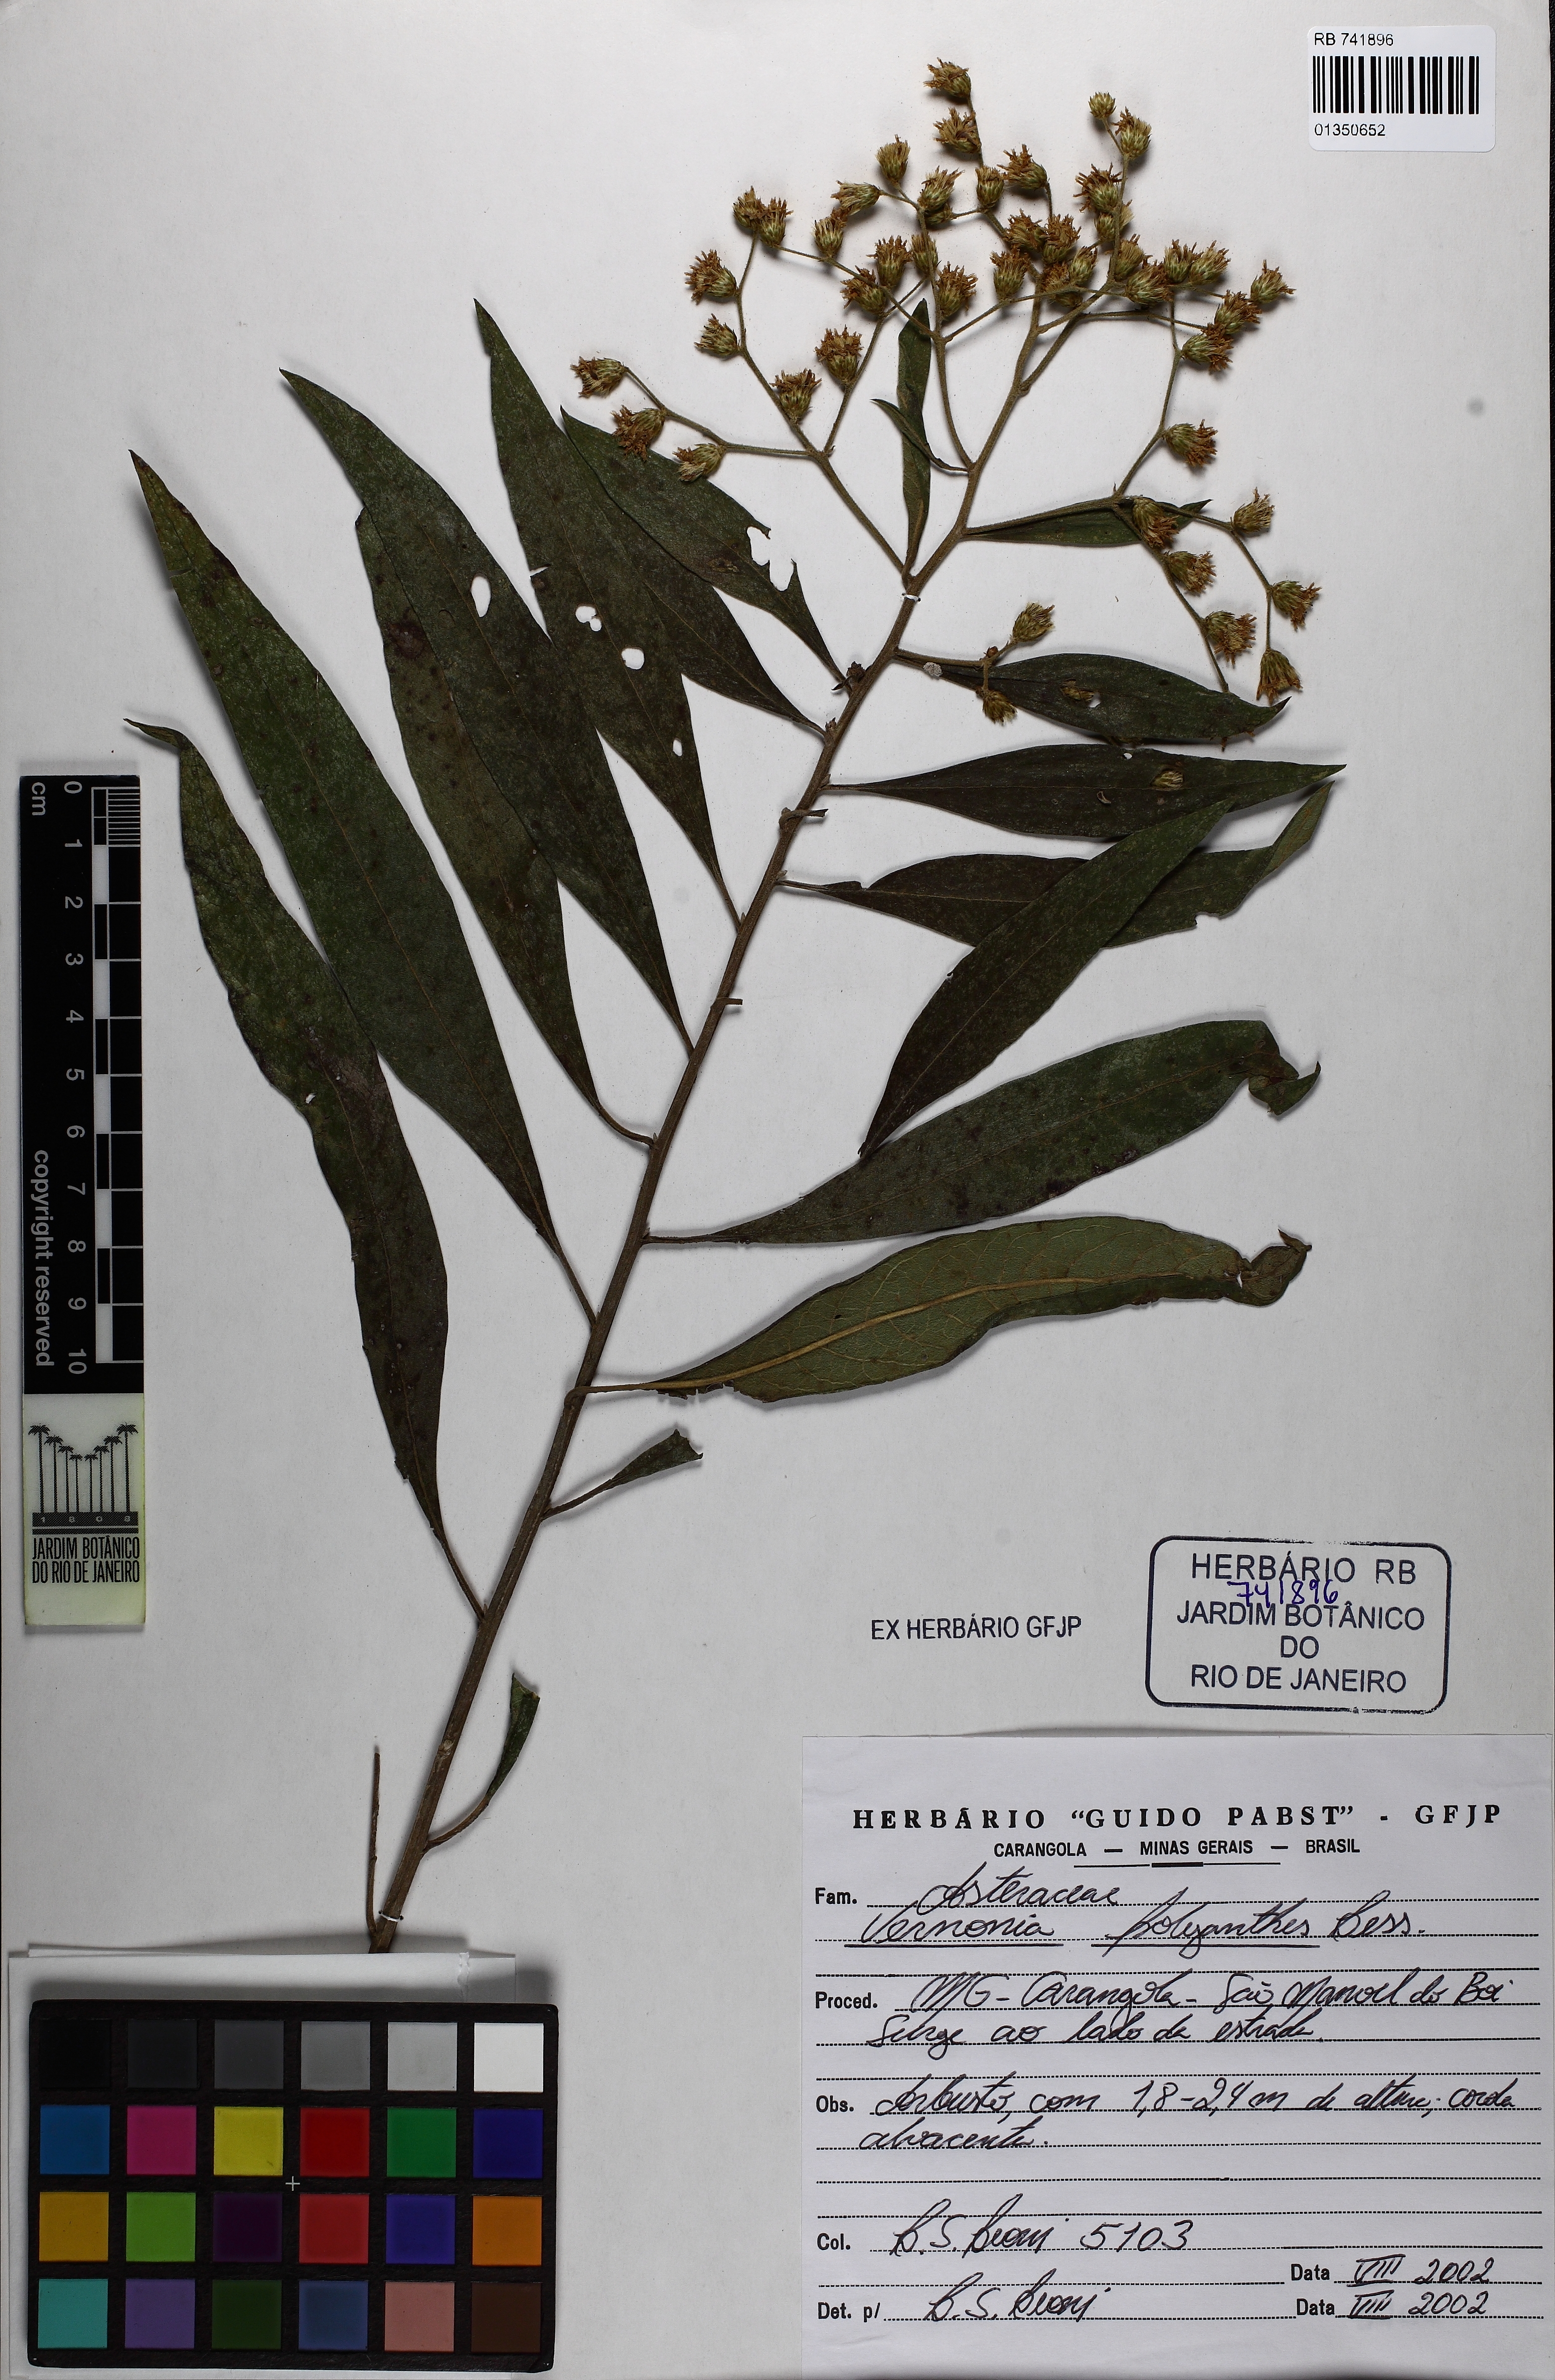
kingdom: Plantae
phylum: Tracheophyta
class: Magnoliopsida
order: Asterales
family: Asteraceae
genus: Vernonanthura
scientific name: Vernonanthura polyanthes
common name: Tree aster
